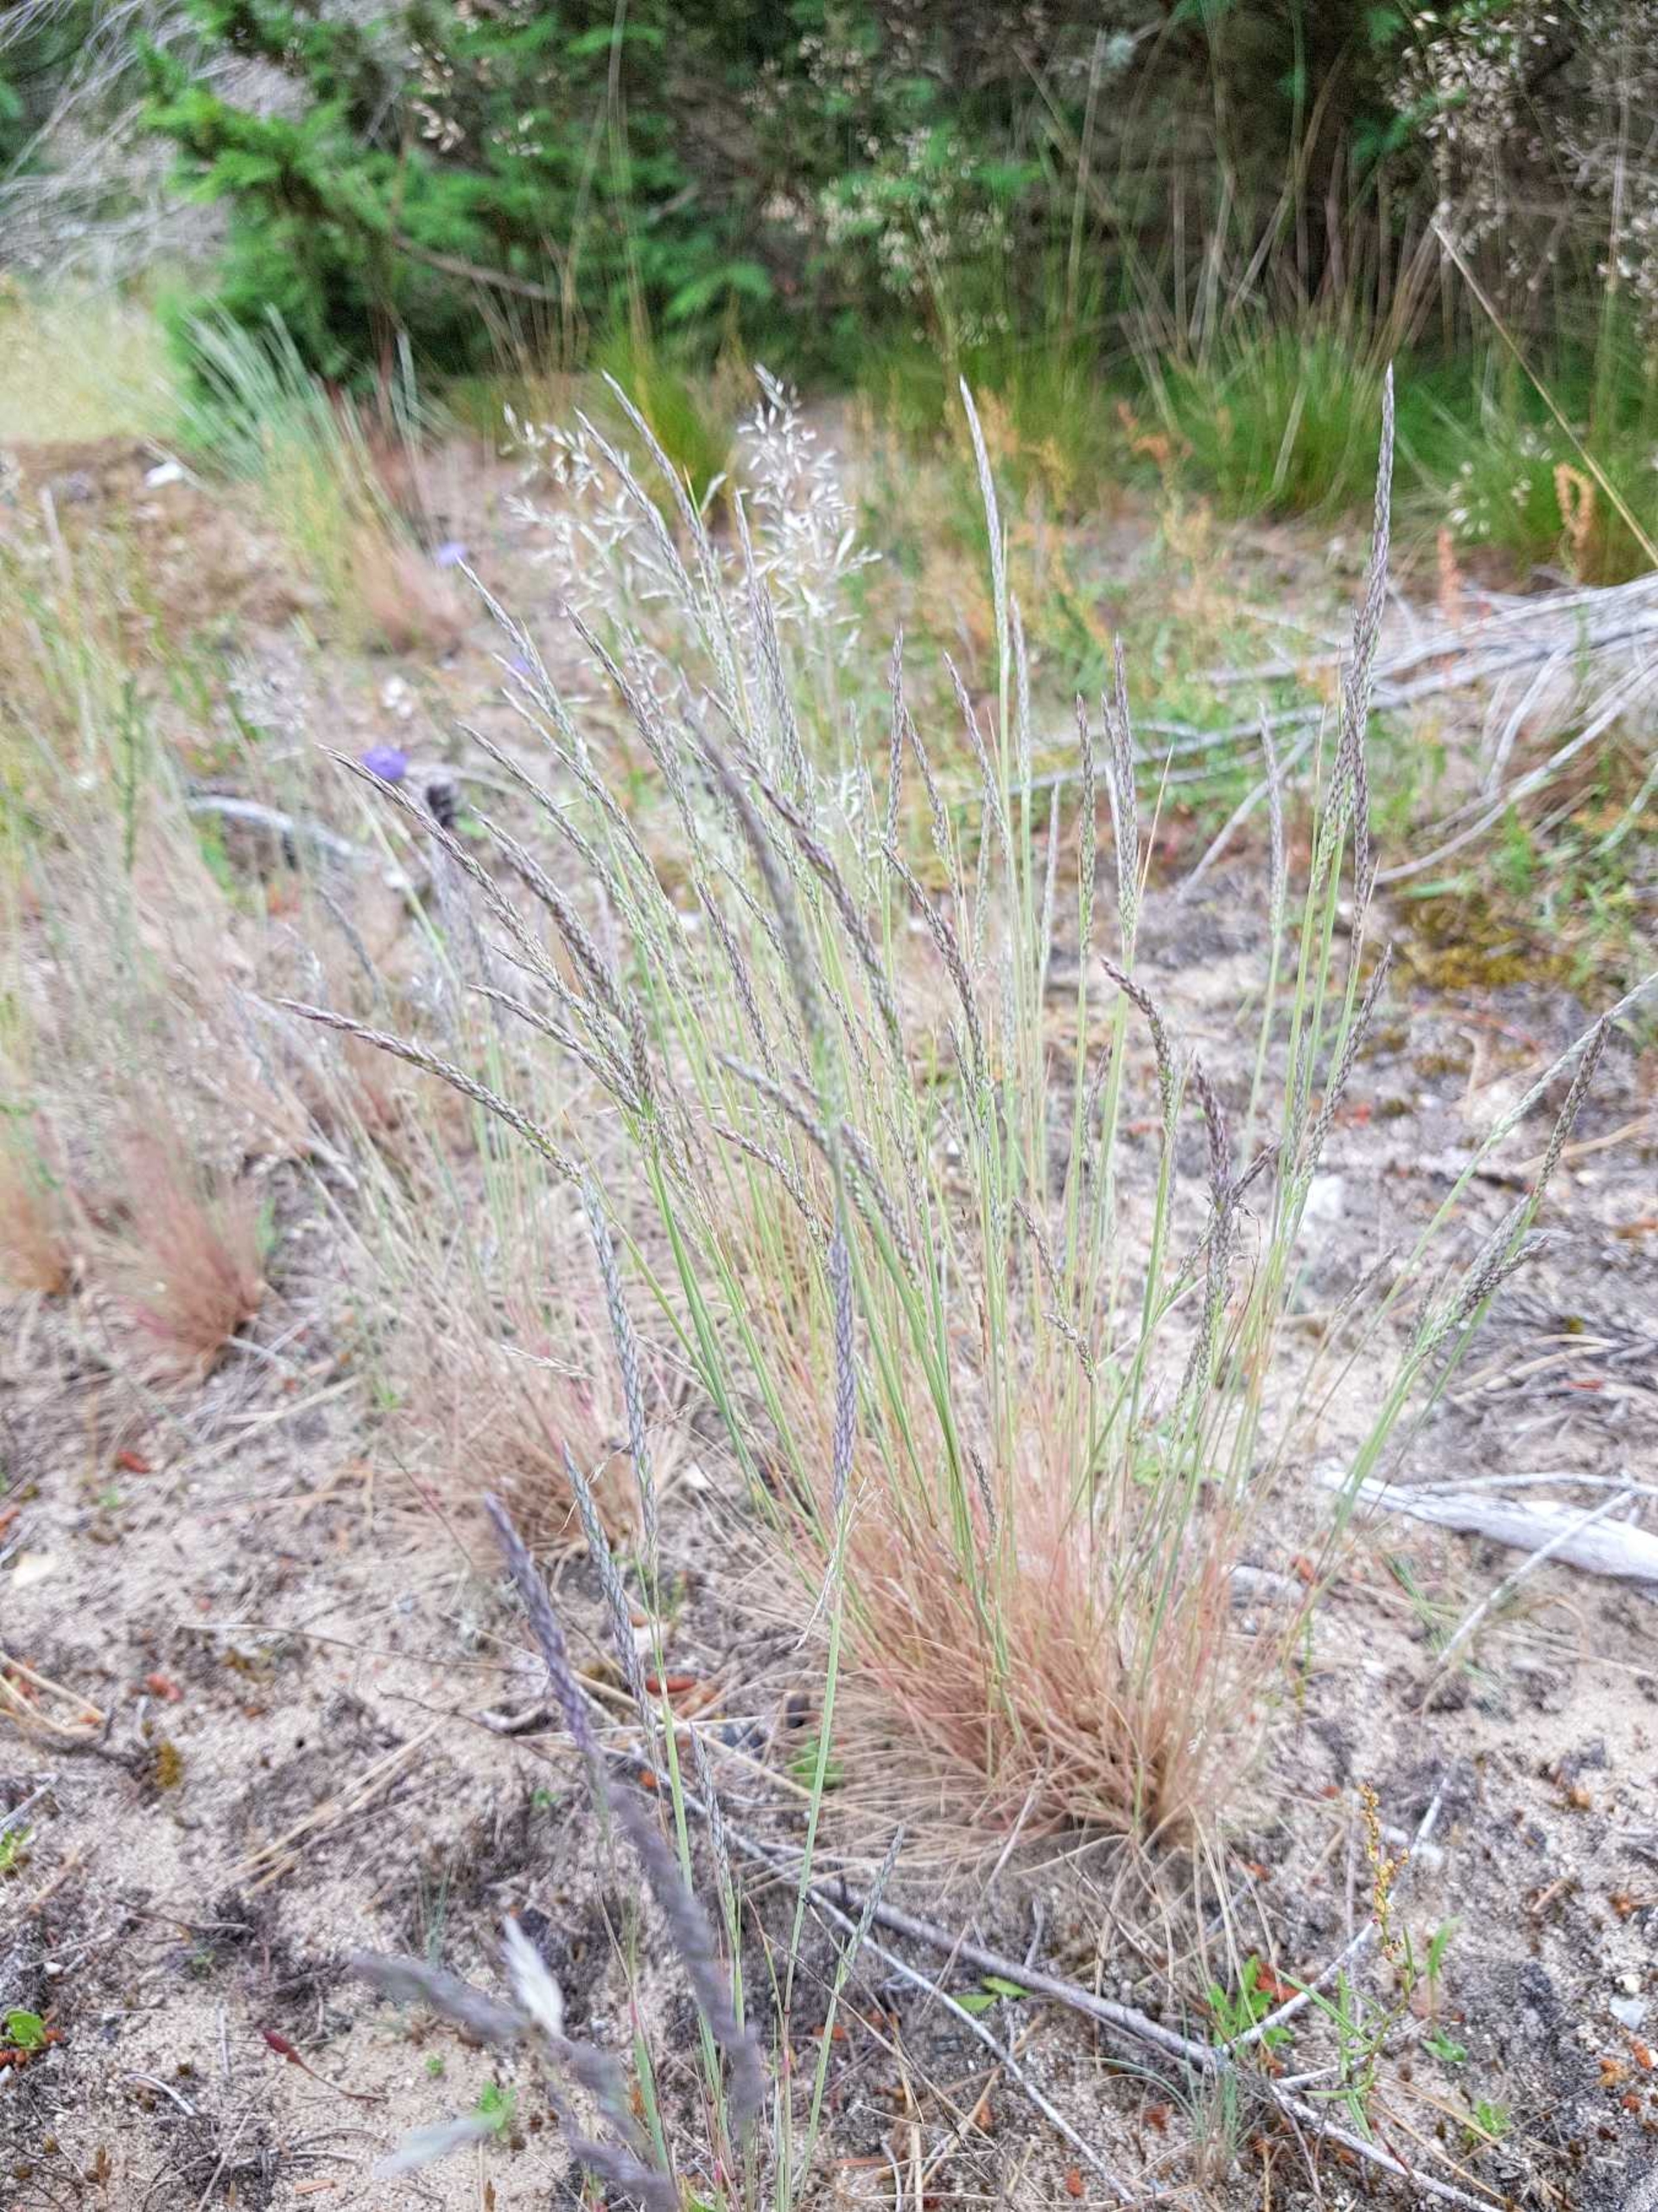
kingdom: Plantae
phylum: Tracheophyta
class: Liliopsida
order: Poales
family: Poaceae
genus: Corynephorus
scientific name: Corynephorus canescens
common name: Sandskæg
